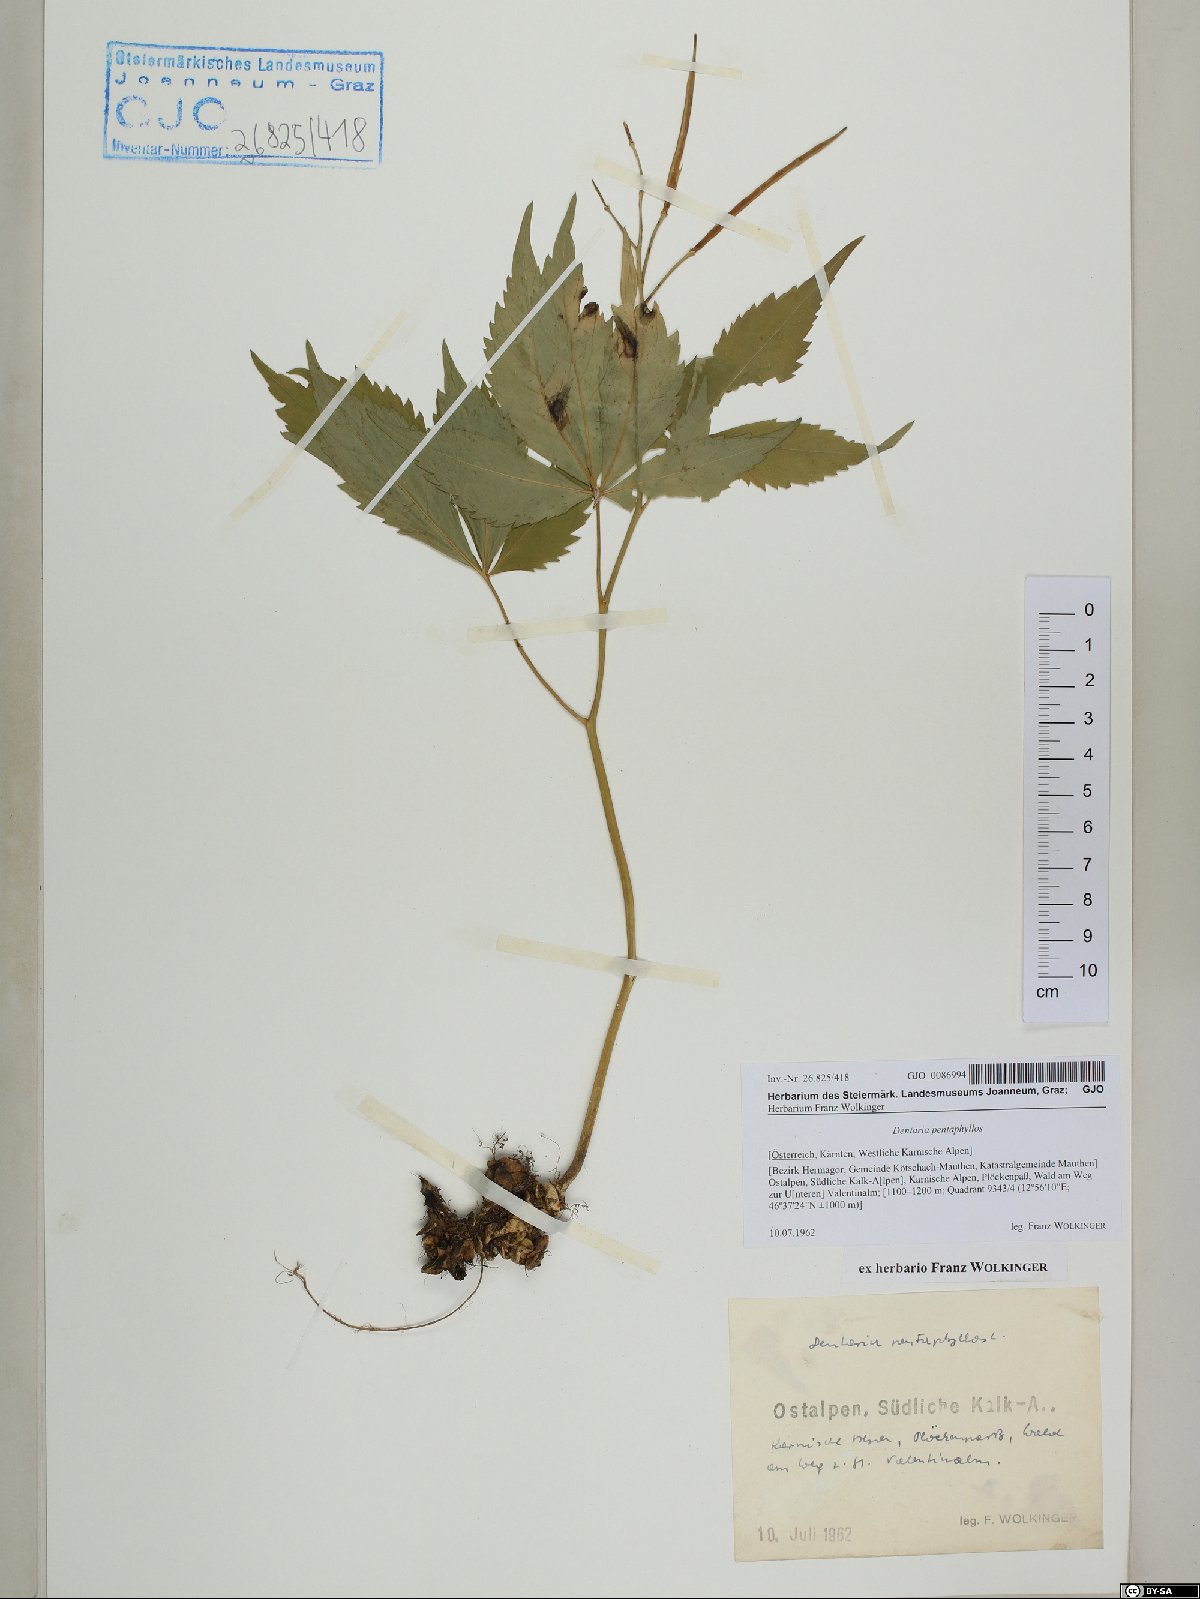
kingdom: Plantae
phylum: Tracheophyta
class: Magnoliopsida
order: Brassicales
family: Brassicaceae
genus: Cardamine
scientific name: Cardamine pentaphyllos
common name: Five-leaflet bitter-cress
